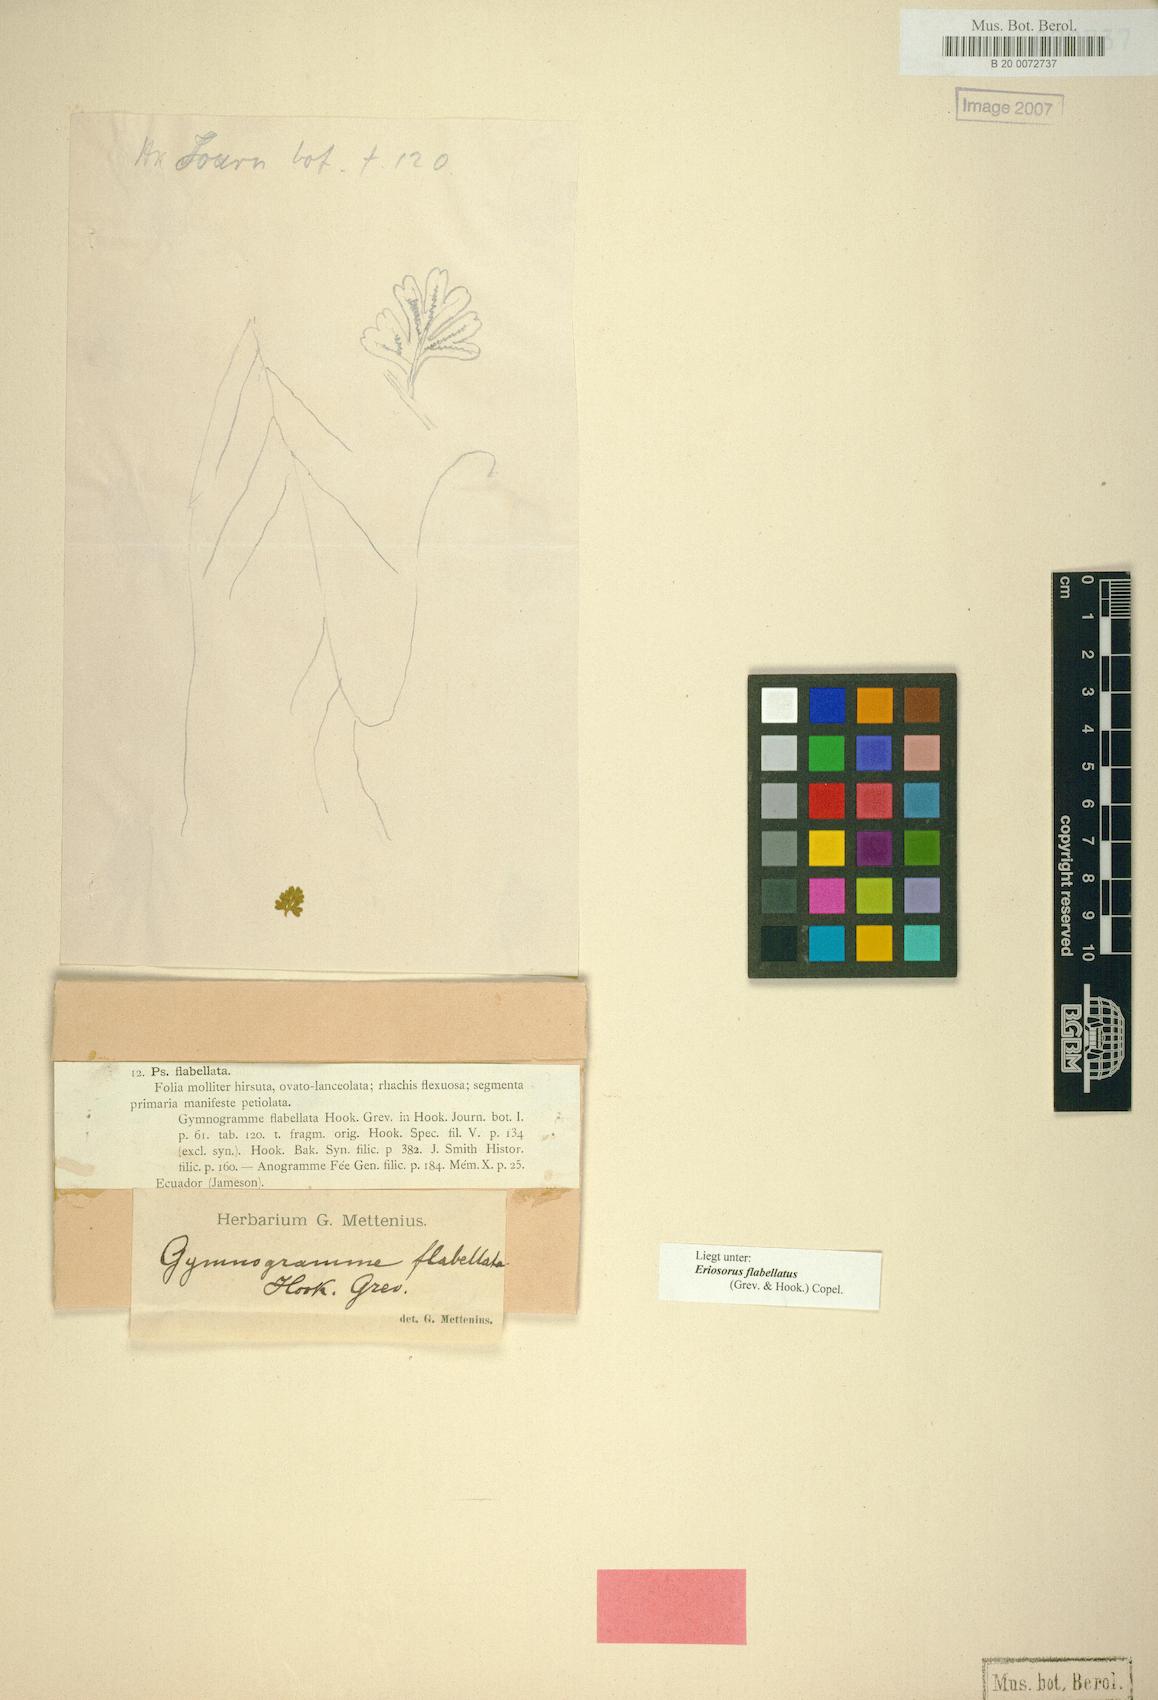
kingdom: Plantae
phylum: Tracheophyta
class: Polypodiopsida
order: Polypodiales
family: Pteridaceae
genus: Jamesonia
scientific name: Jamesonia flabellata
